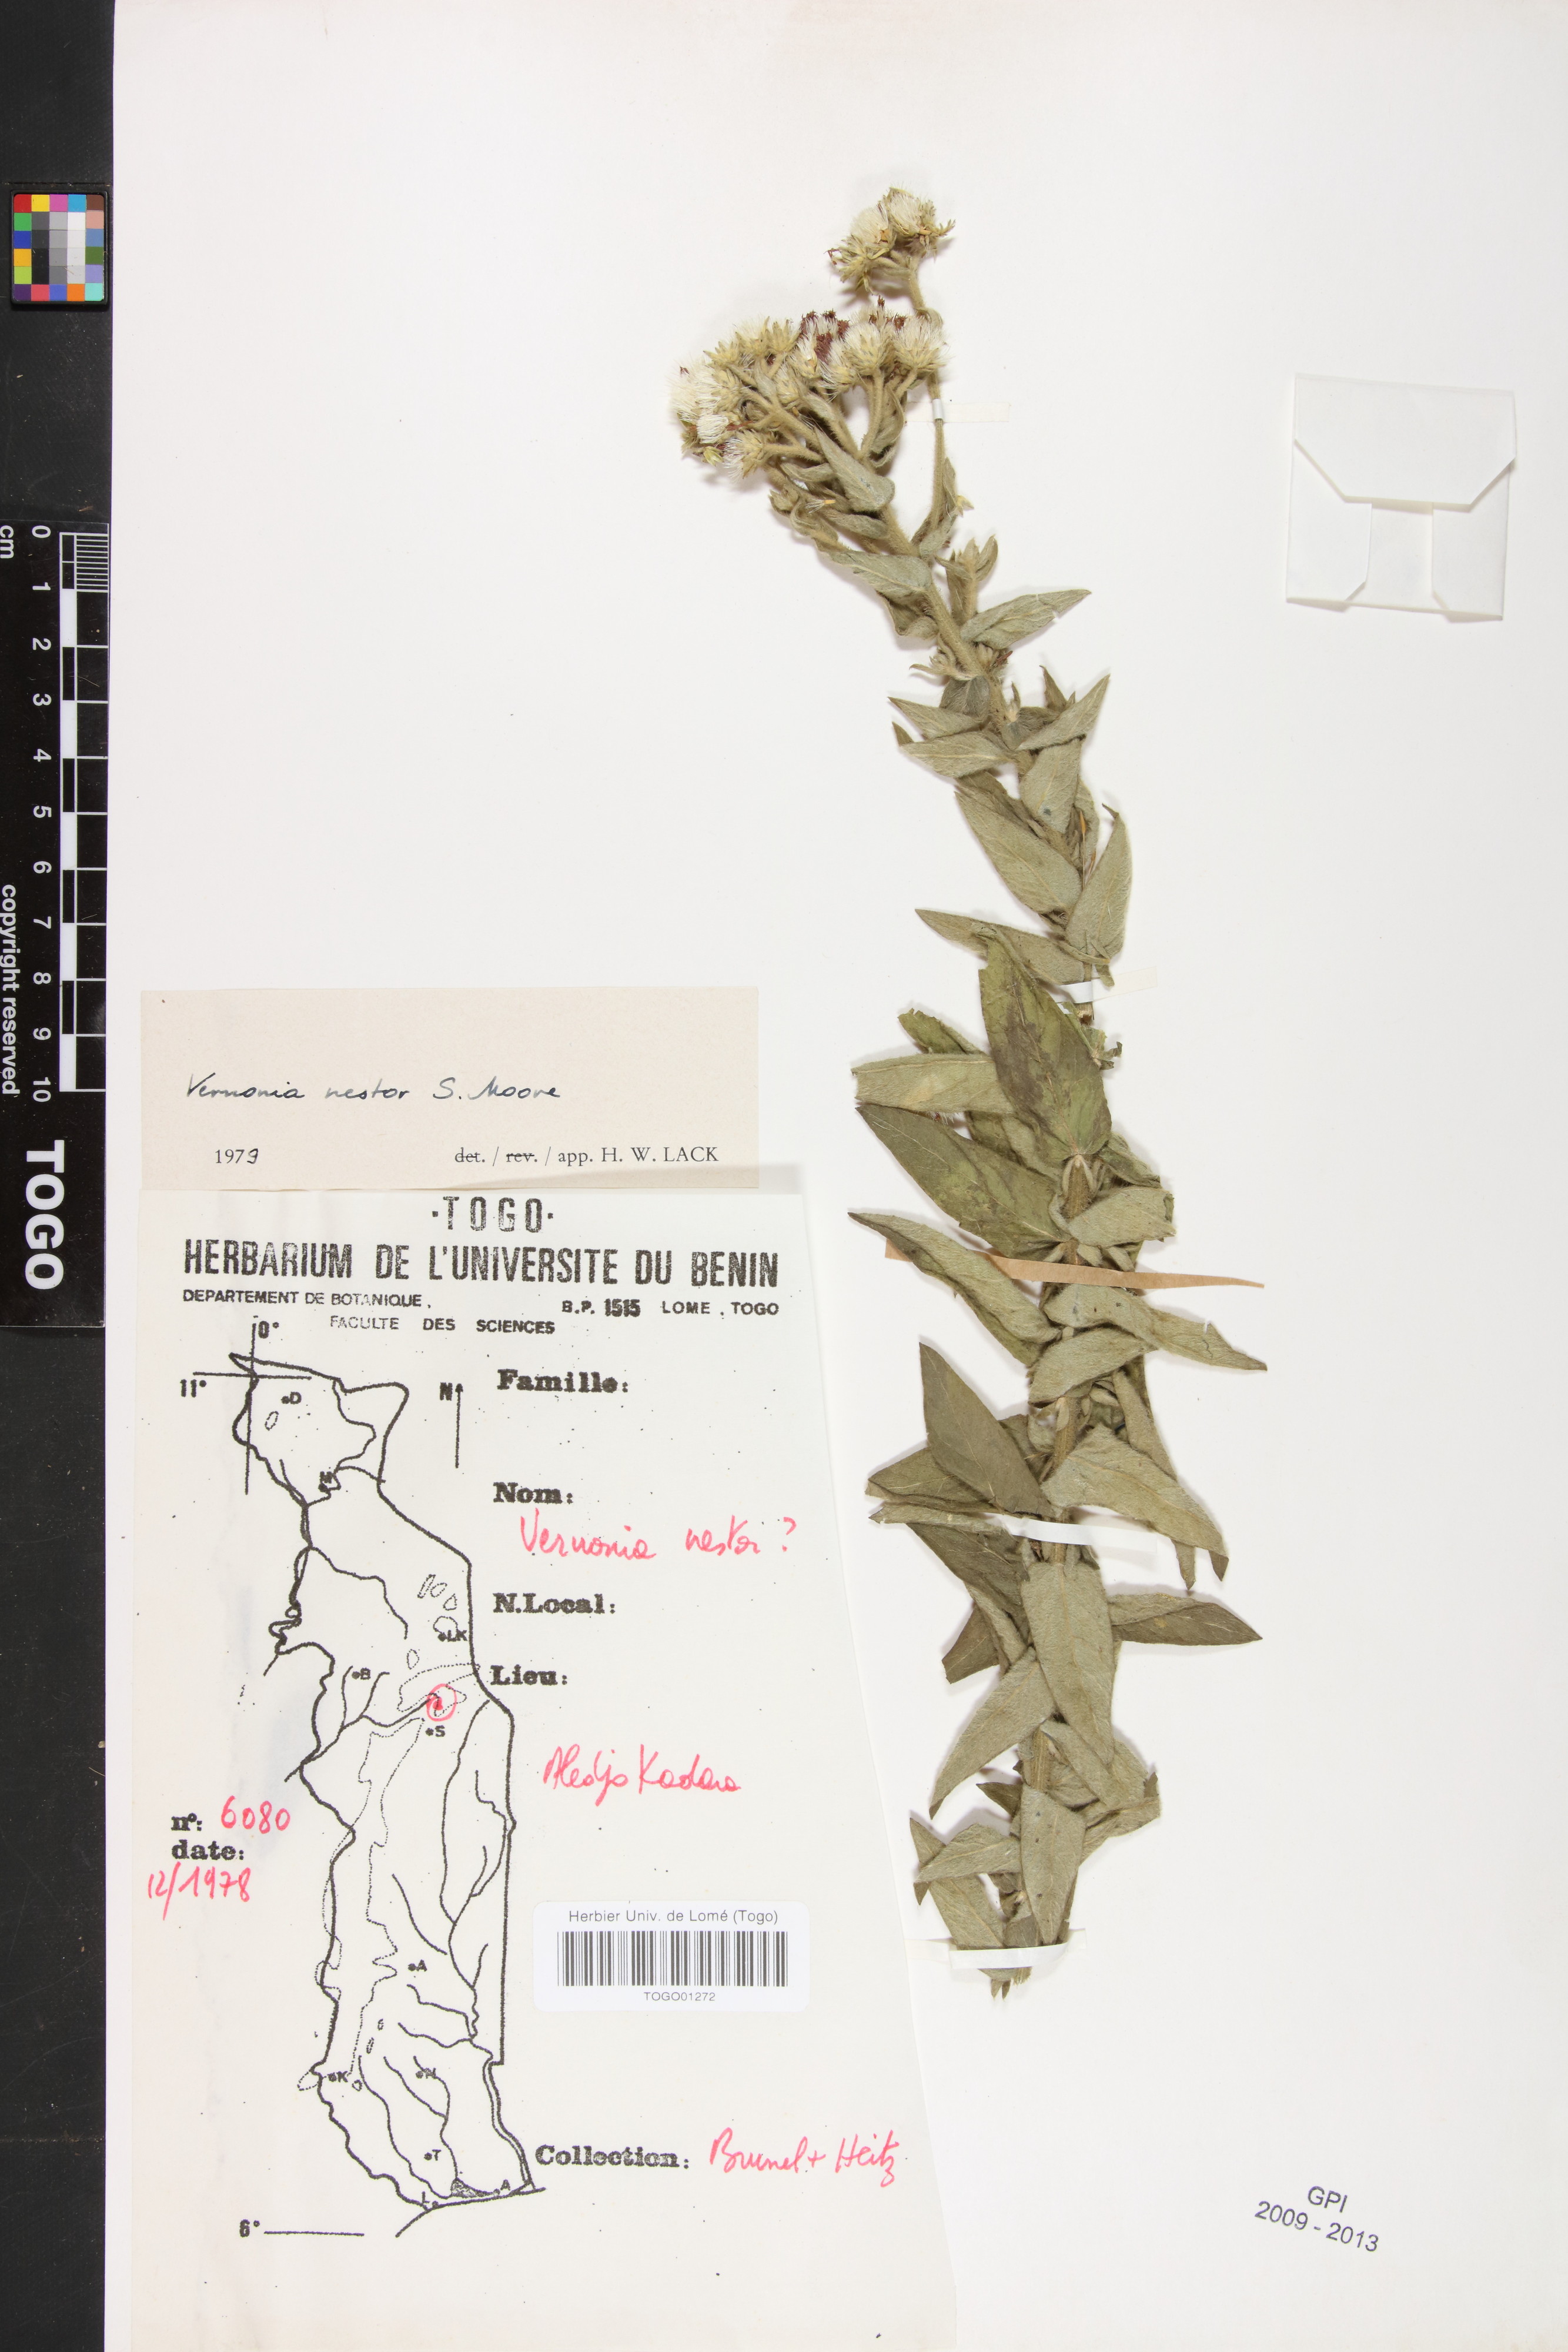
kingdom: Plantae
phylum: Tracheophyta
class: Magnoliopsida
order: Asterales
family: Asteraceae
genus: Vernoniastrum
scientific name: Vernoniastrum nestor
